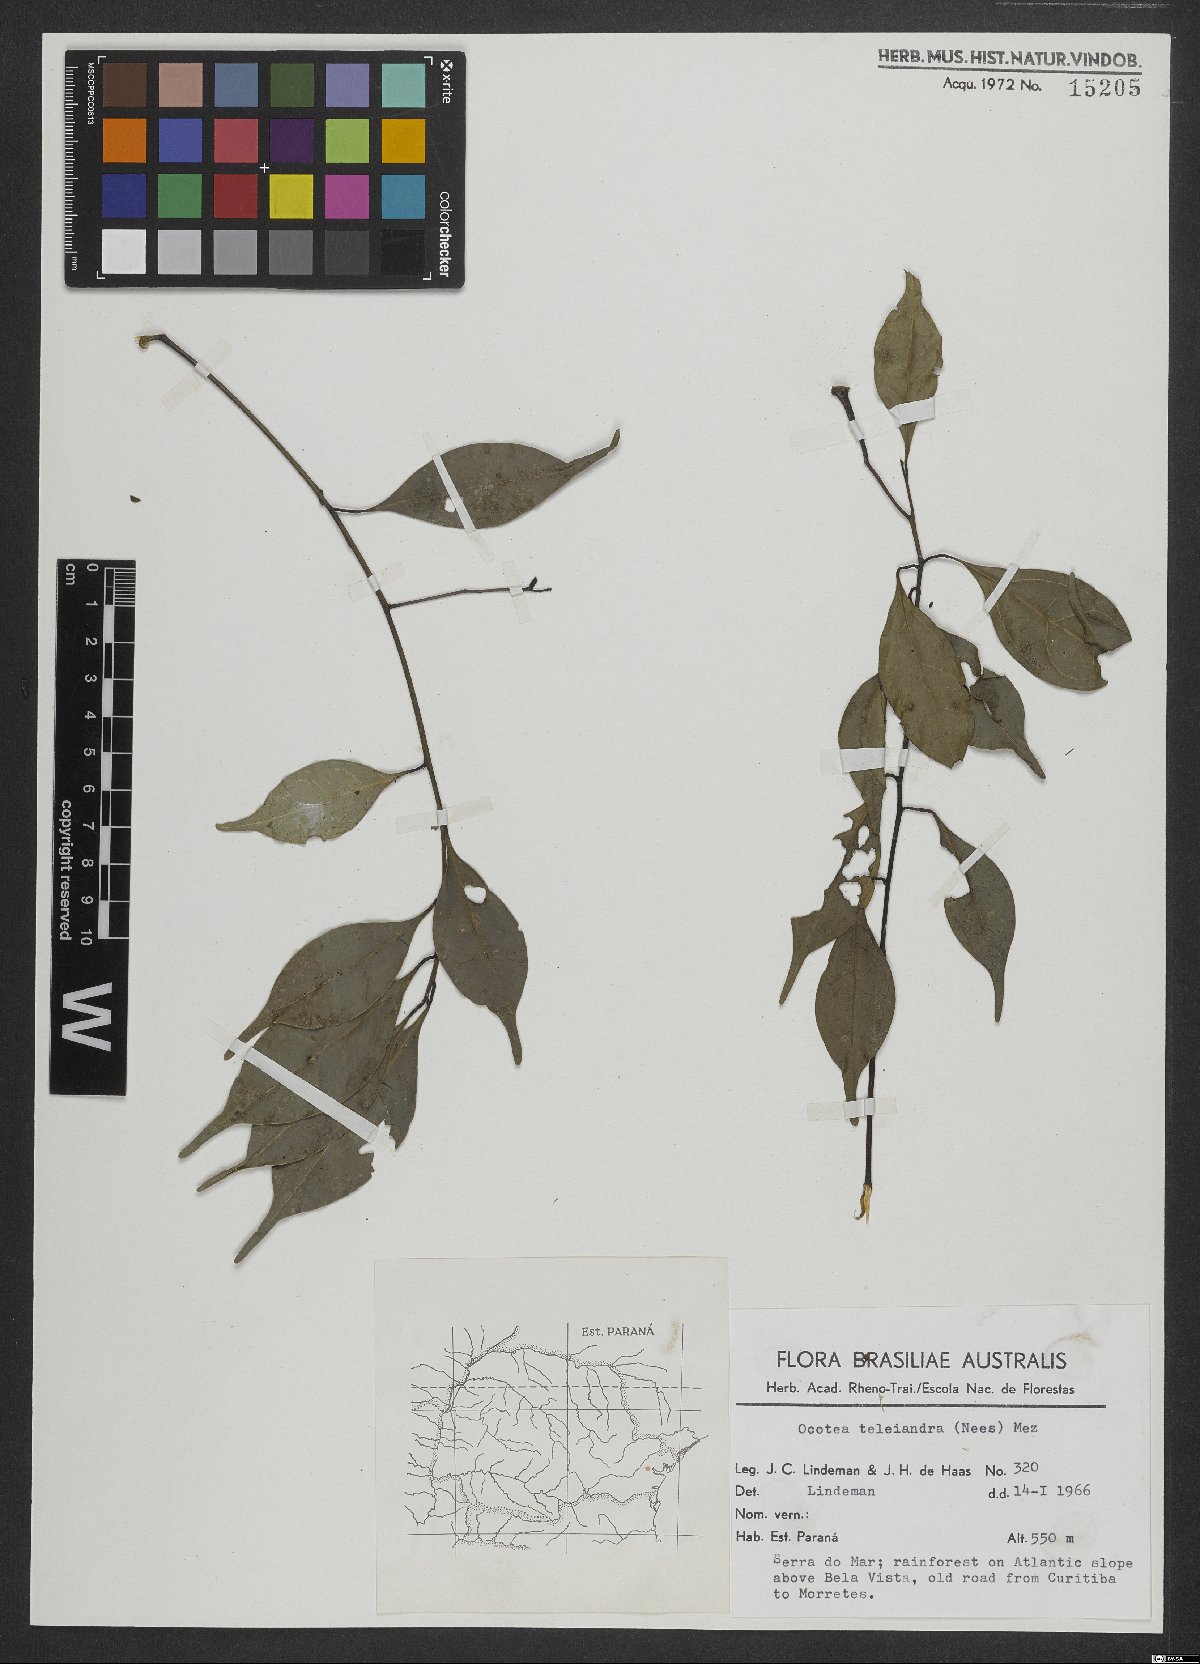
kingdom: Plantae
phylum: Tracheophyta
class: Magnoliopsida
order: Laurales
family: Lauraceae
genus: Ocotea
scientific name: Ocotea teleiandra
